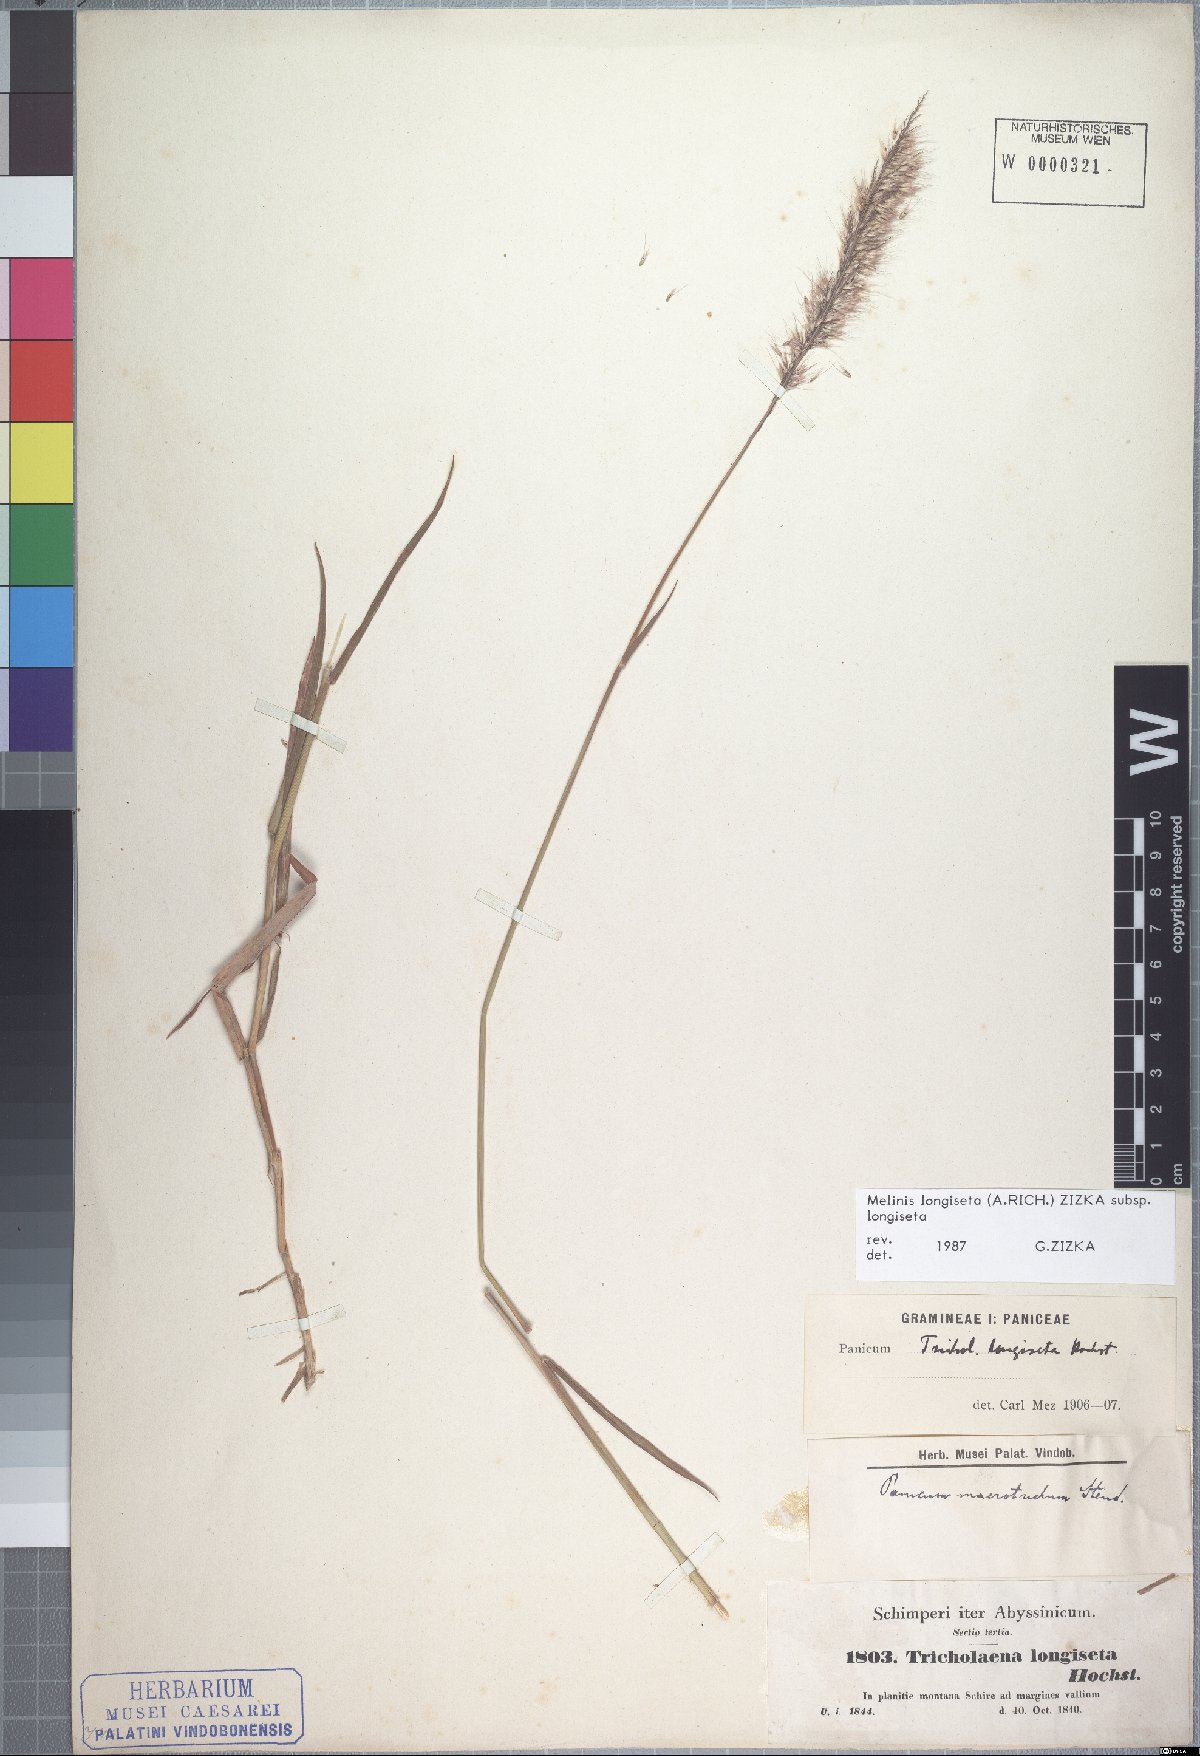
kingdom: Plantae
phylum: Tracheophyta
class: Liliopsida
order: Poales
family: Poaceae
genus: Melinis
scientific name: Melinis longiseta
